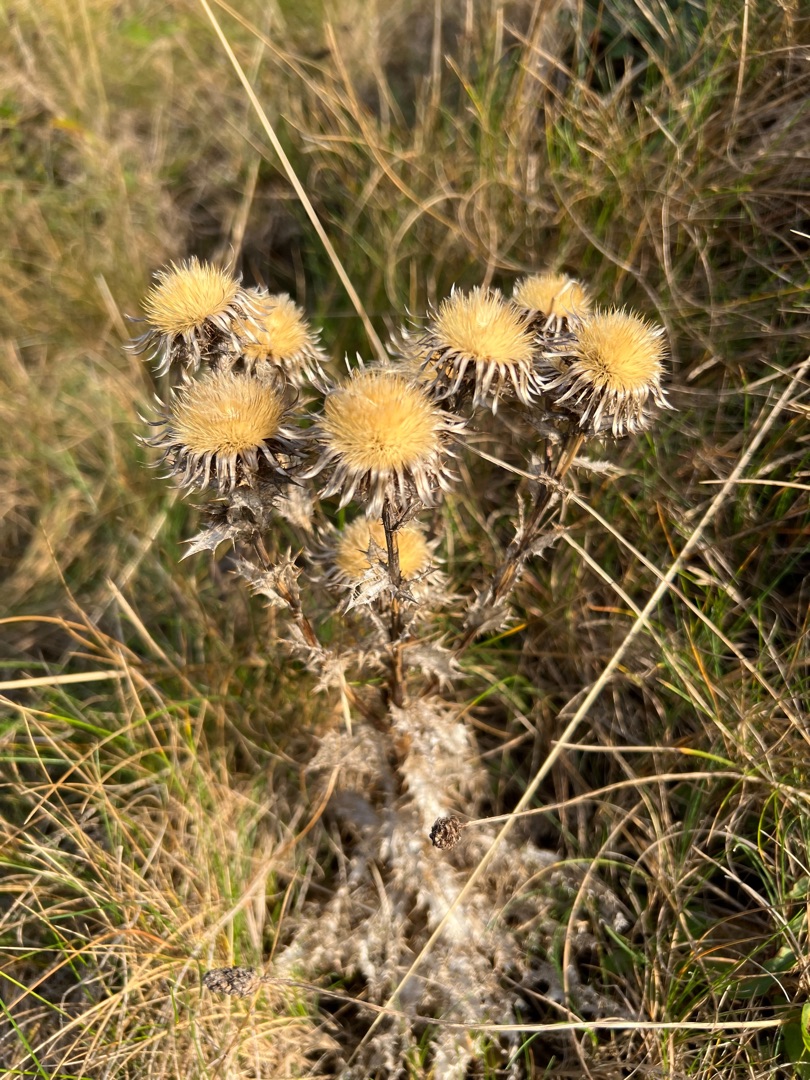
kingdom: Plantae
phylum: Tracheophyta
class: Magnoliopsida
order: Asterales
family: Asteraceae
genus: Carlina
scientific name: Carlina vulgaris
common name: Bakketidsel
